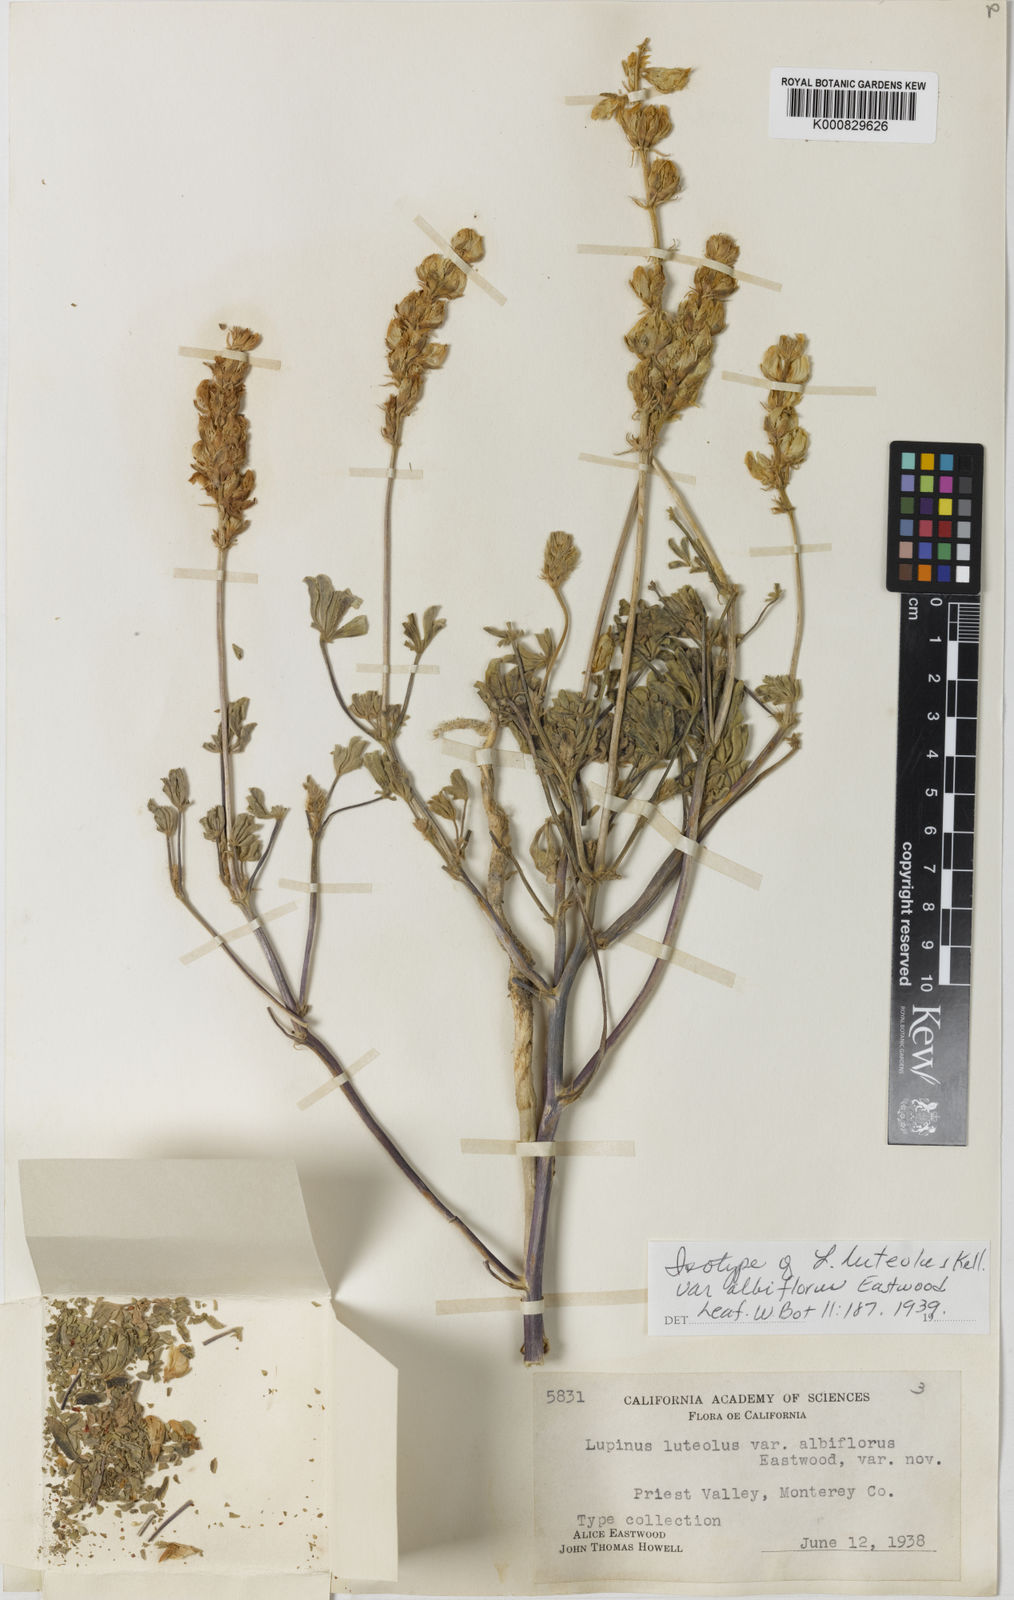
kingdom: Plantae
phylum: Tracheophyta
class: Magnoliopsida
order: Fabales
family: Fabaceae
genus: Lupinus
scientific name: Lupinus luteolus
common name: Butter lupine
